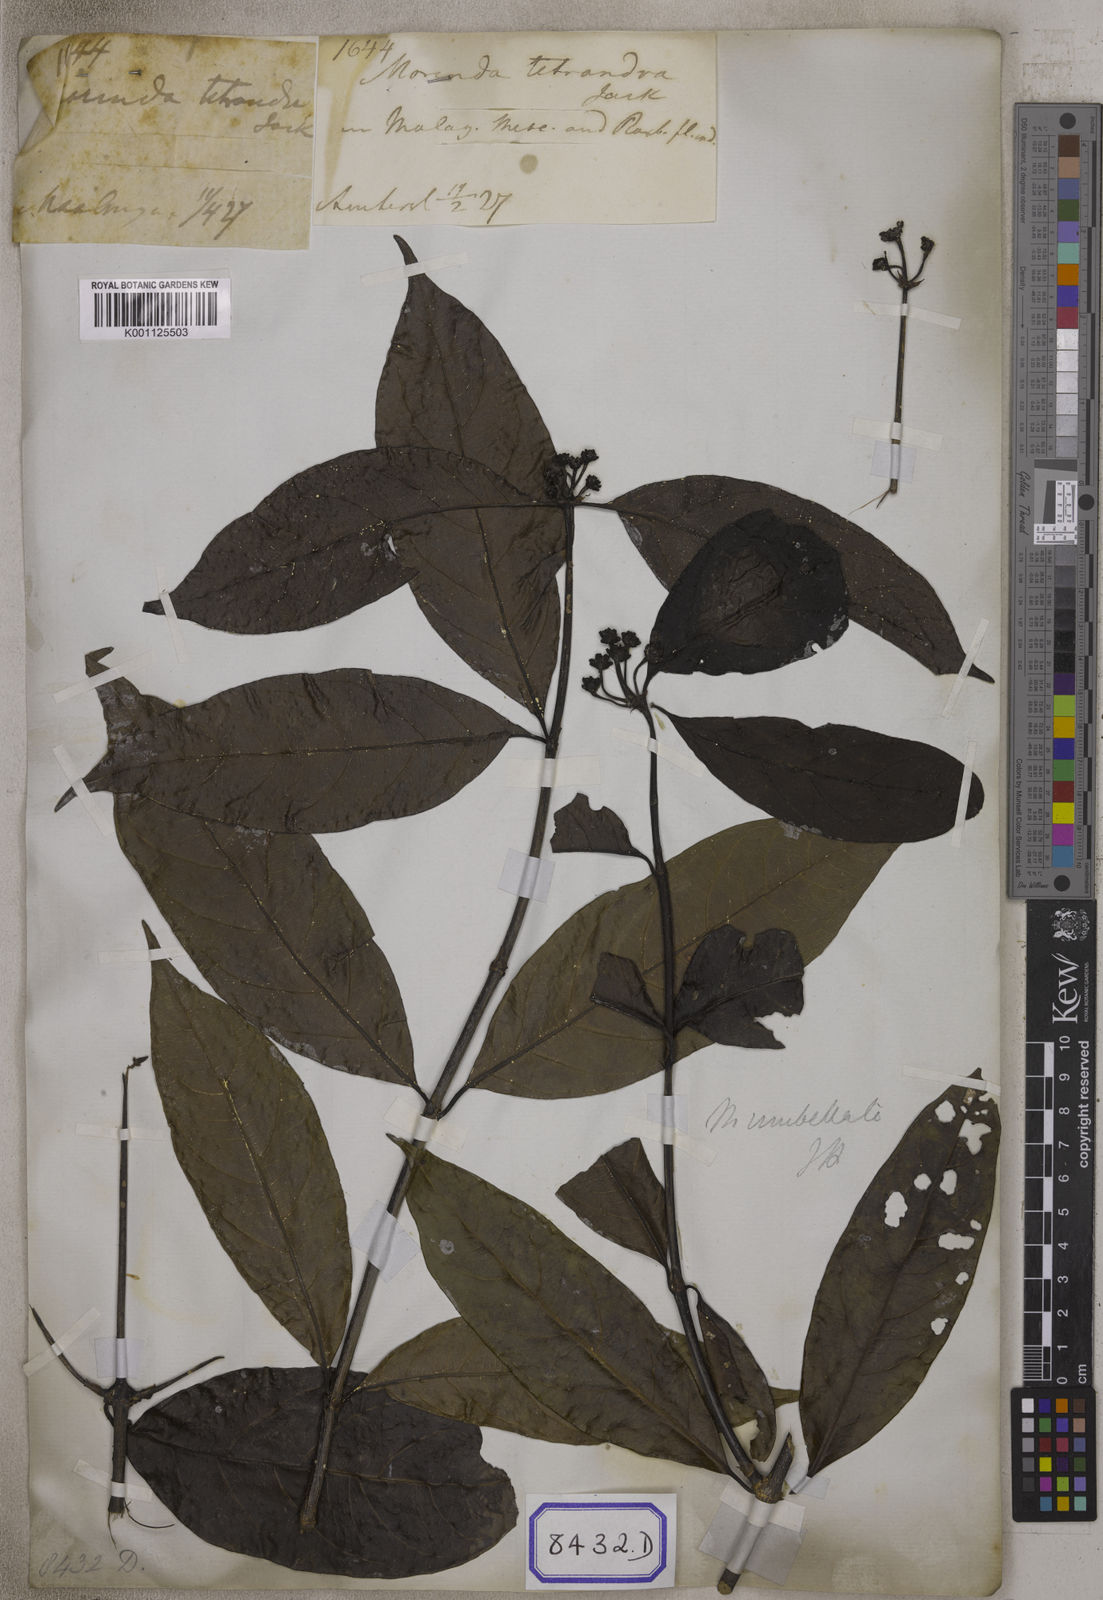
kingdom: Plantae
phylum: Tracheophyta
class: Magnoliopsida
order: Gentianales
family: Rubiaceae
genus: Gynochthodes
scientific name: Gynochthodes umbellata
